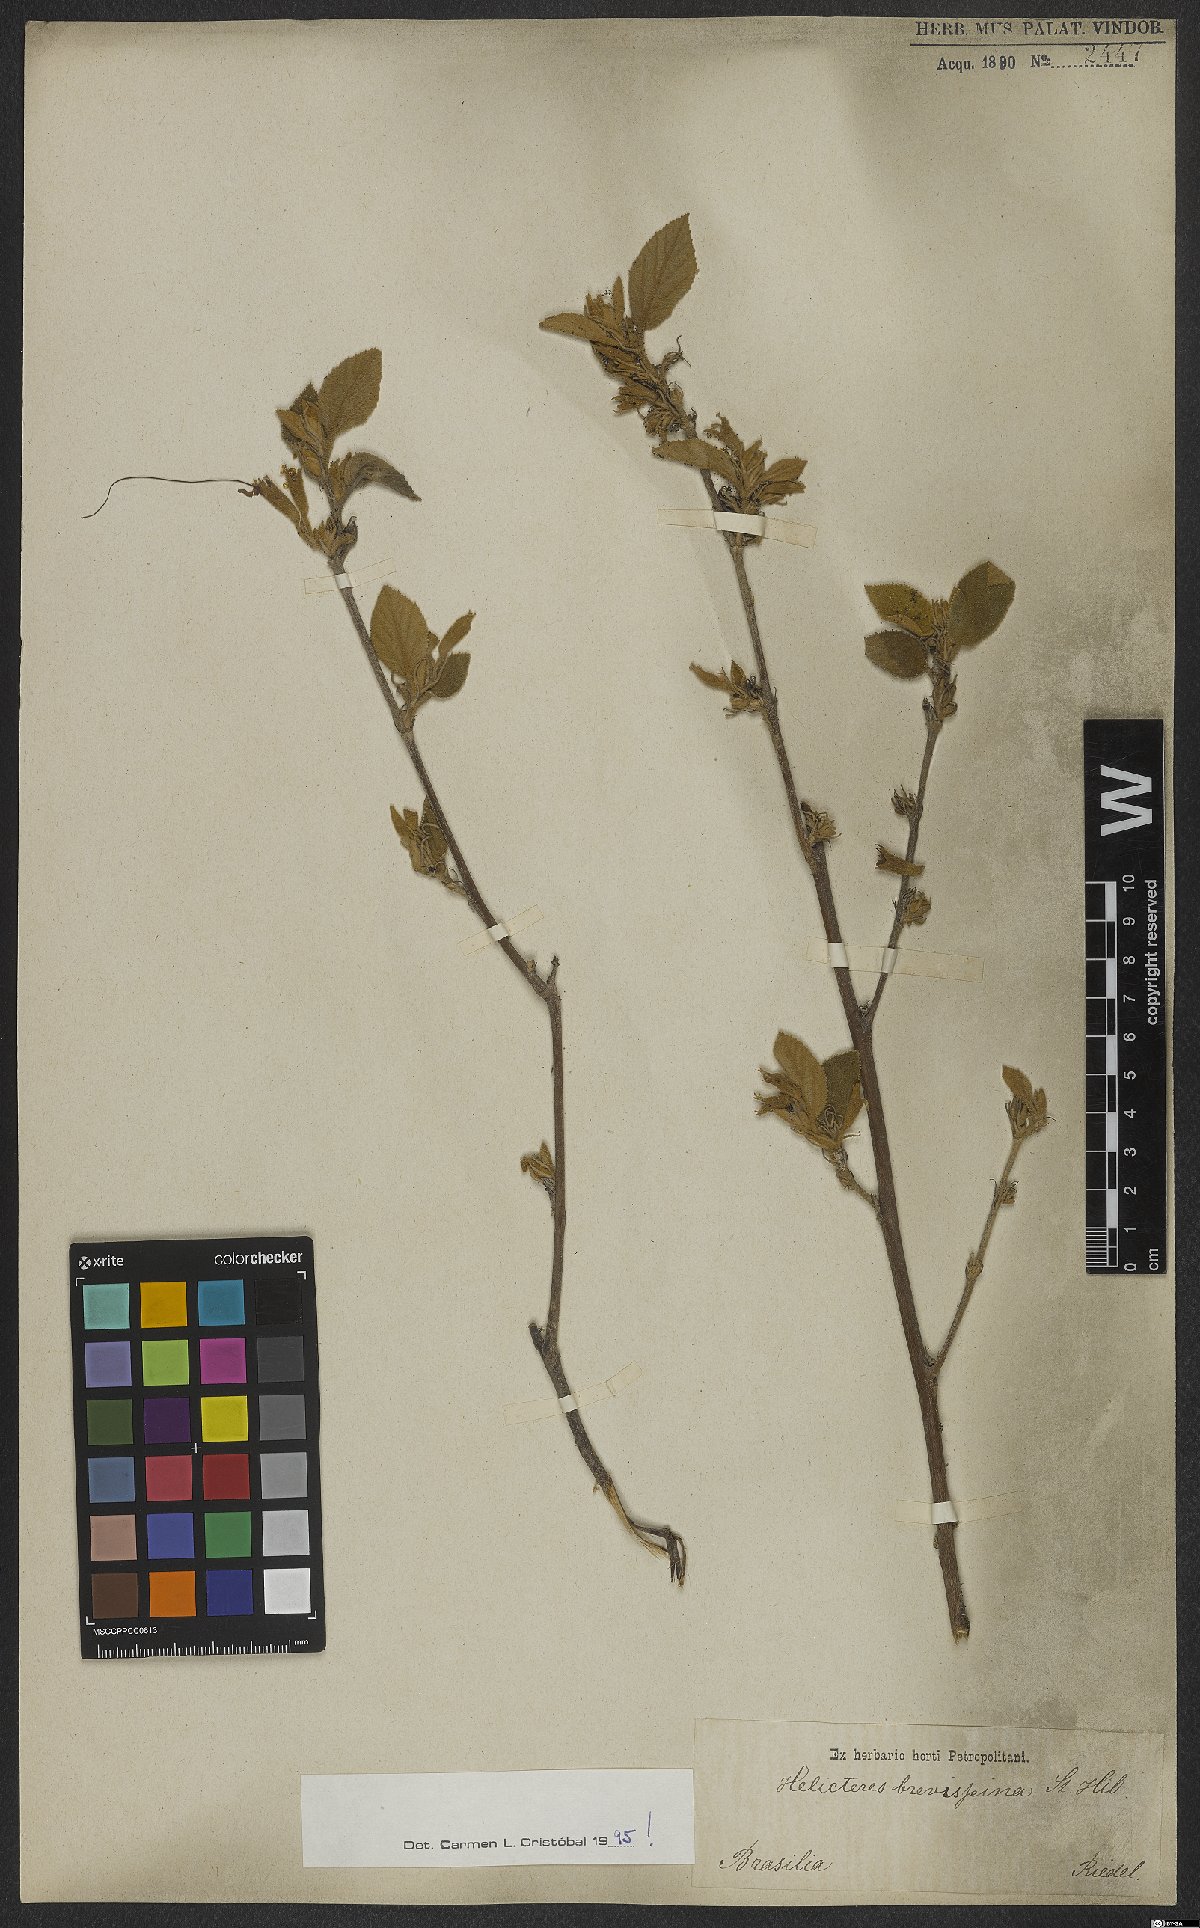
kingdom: Plantae
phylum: Tracheophyta
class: Magnoliopsida
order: Malvales
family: Malvaceae
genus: Helicteres
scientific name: Helicteres brevispira
